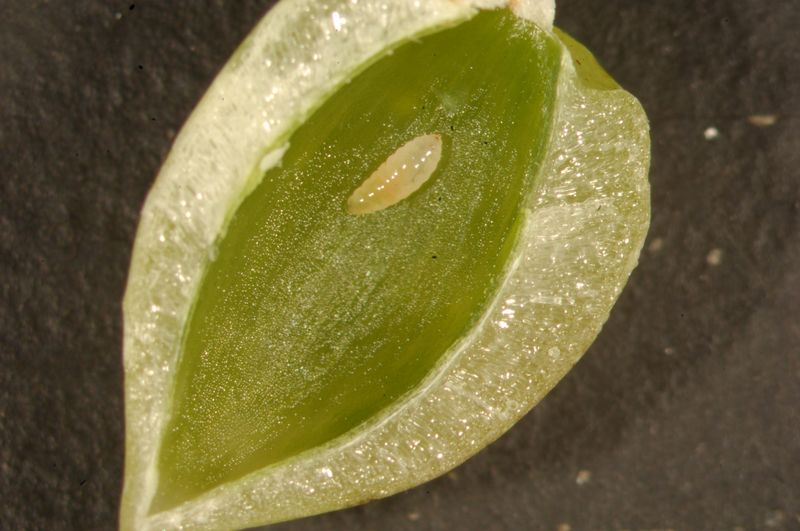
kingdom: Animalia
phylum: Arthropoda
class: Insecta
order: Diptera
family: Cecidomyiidae
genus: Mikiola
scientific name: Mikiola fagi
